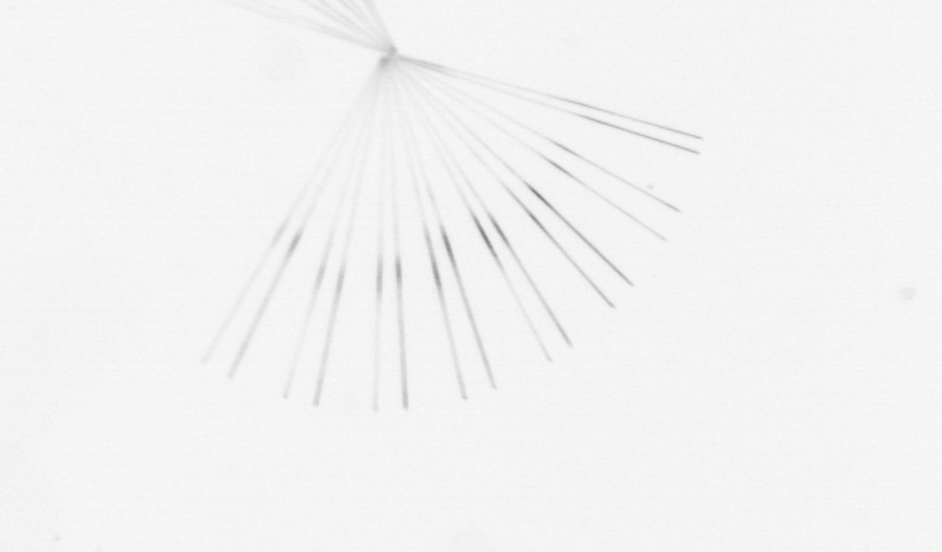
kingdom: Chromista
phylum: Ochrophyta
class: Bacillariophyceae
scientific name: Bacillariophyceae
